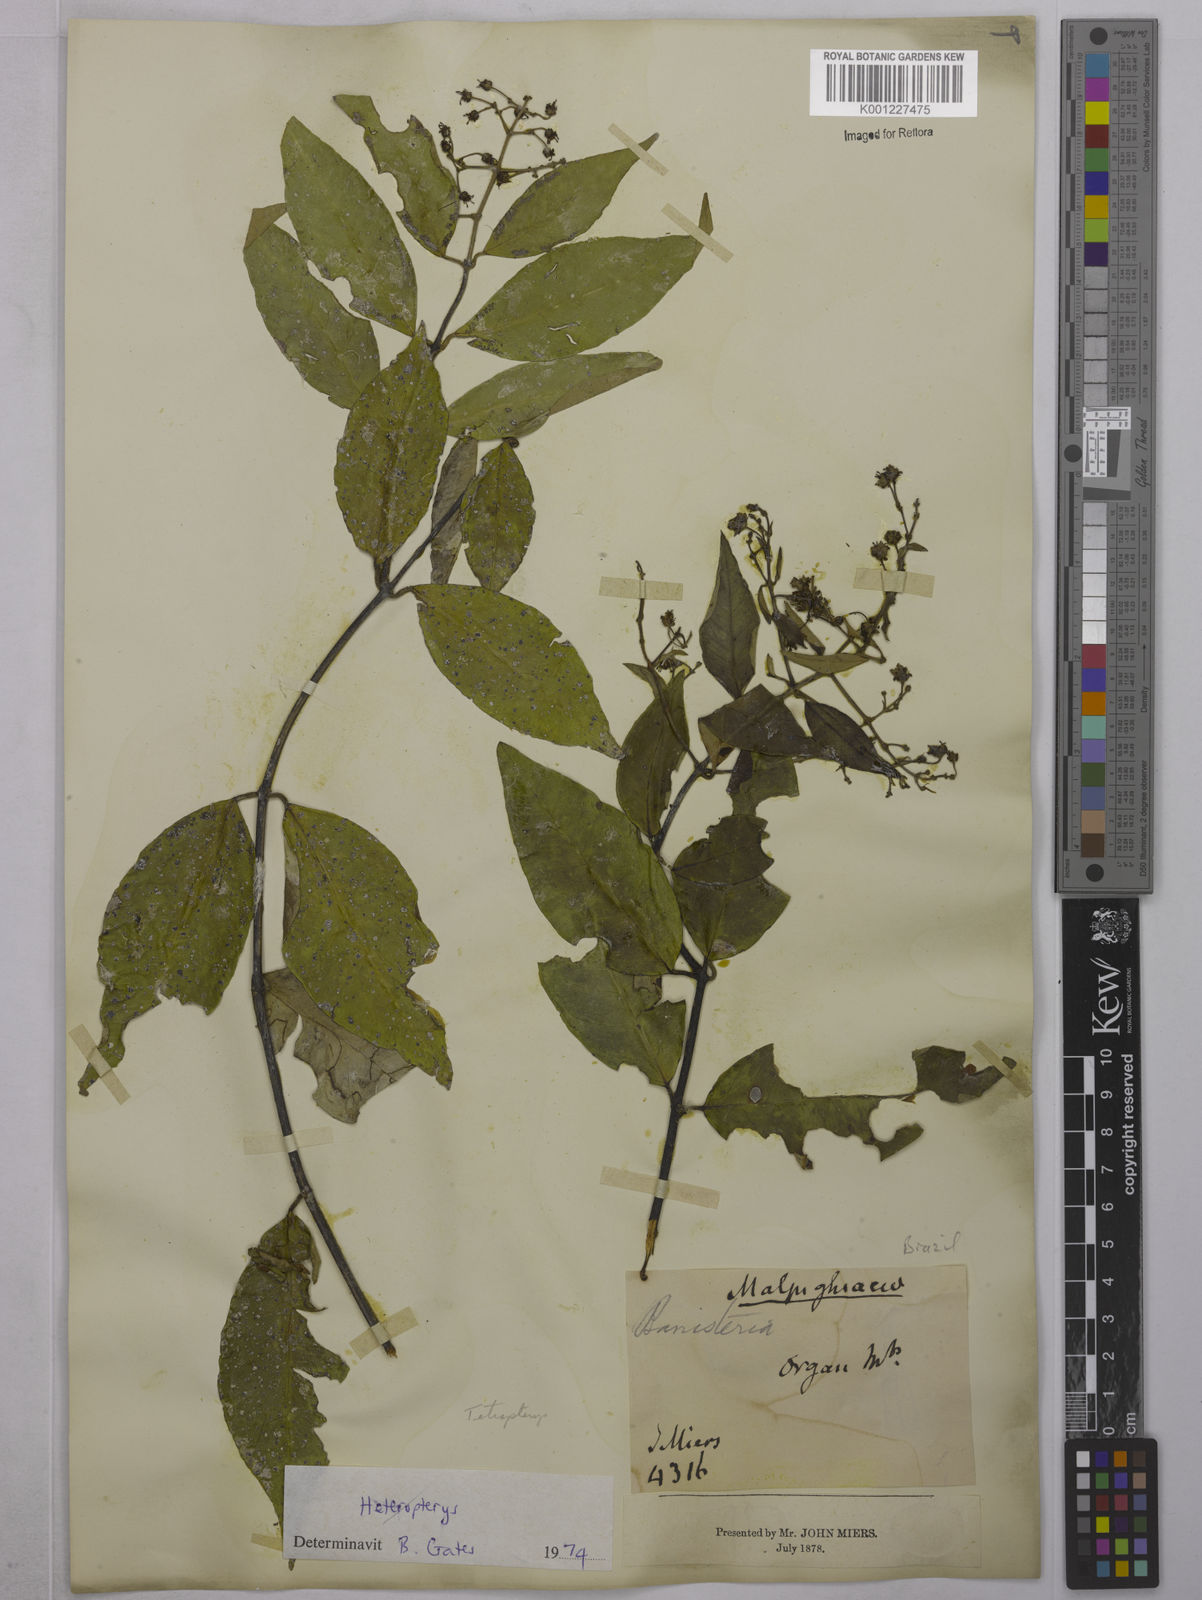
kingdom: Plantae
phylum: Tracheophyta
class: Magnoliopsida
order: Malpighiales
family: Malpighiaceae
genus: Tetrapterys
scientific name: Tetrapterys
